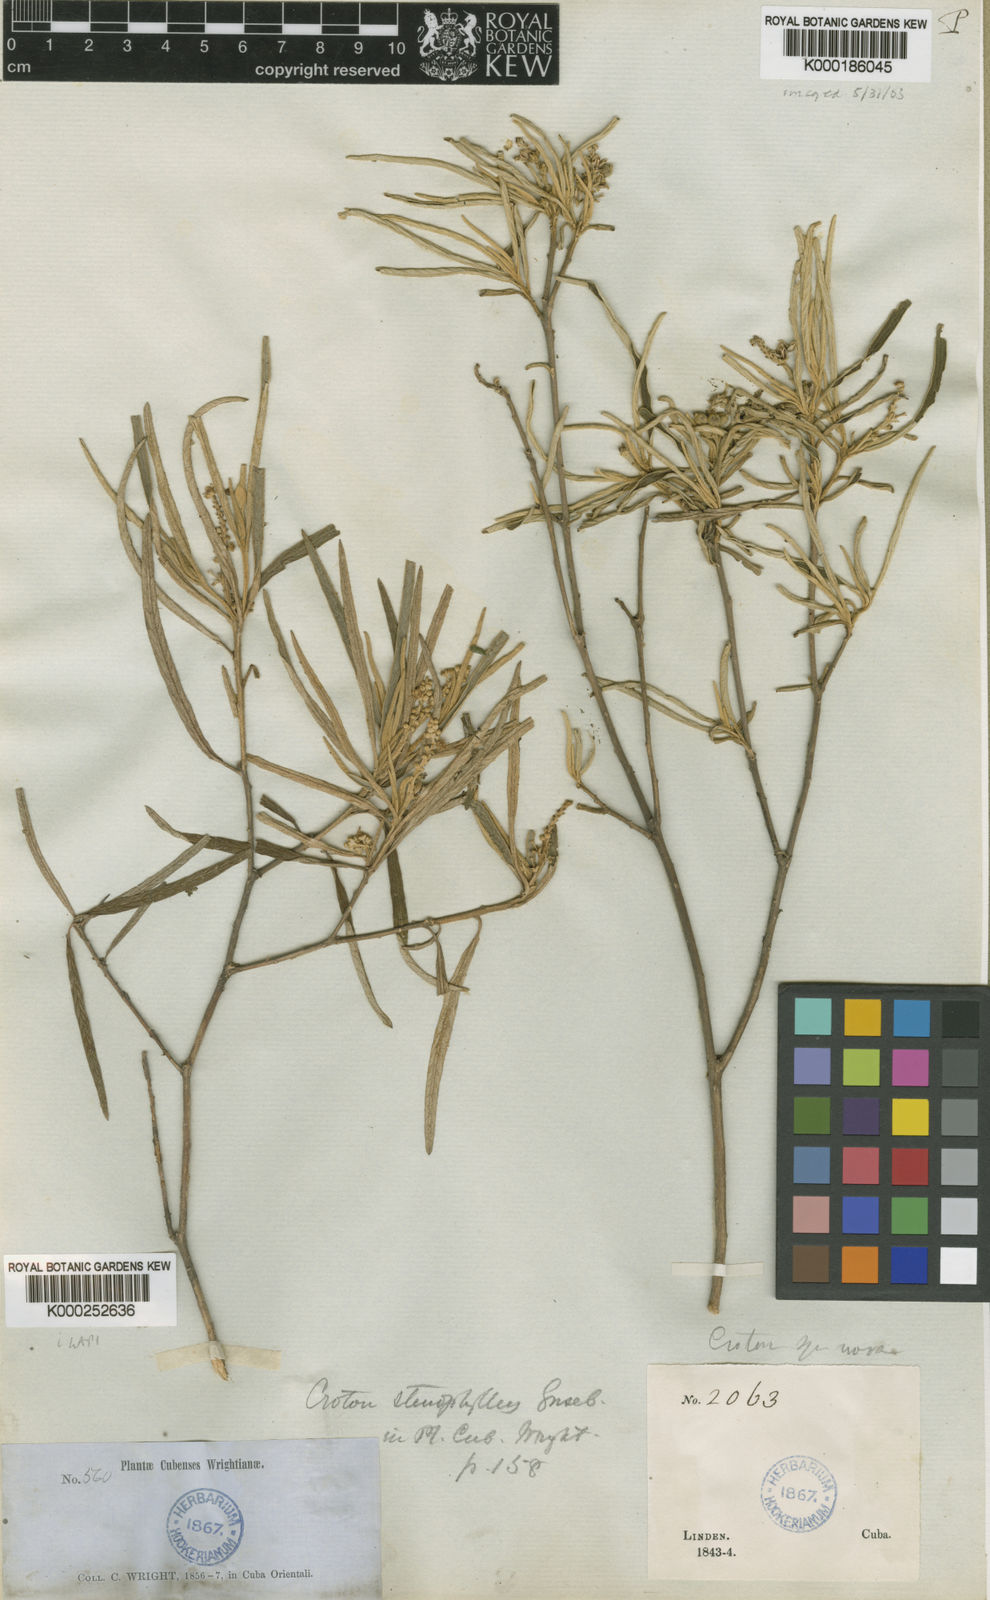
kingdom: Plantae
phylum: Tracheophyta
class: Magnoliopsida
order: Malpighiales
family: Euphorbiaceae
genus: Croton
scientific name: Croton stenophyllus
